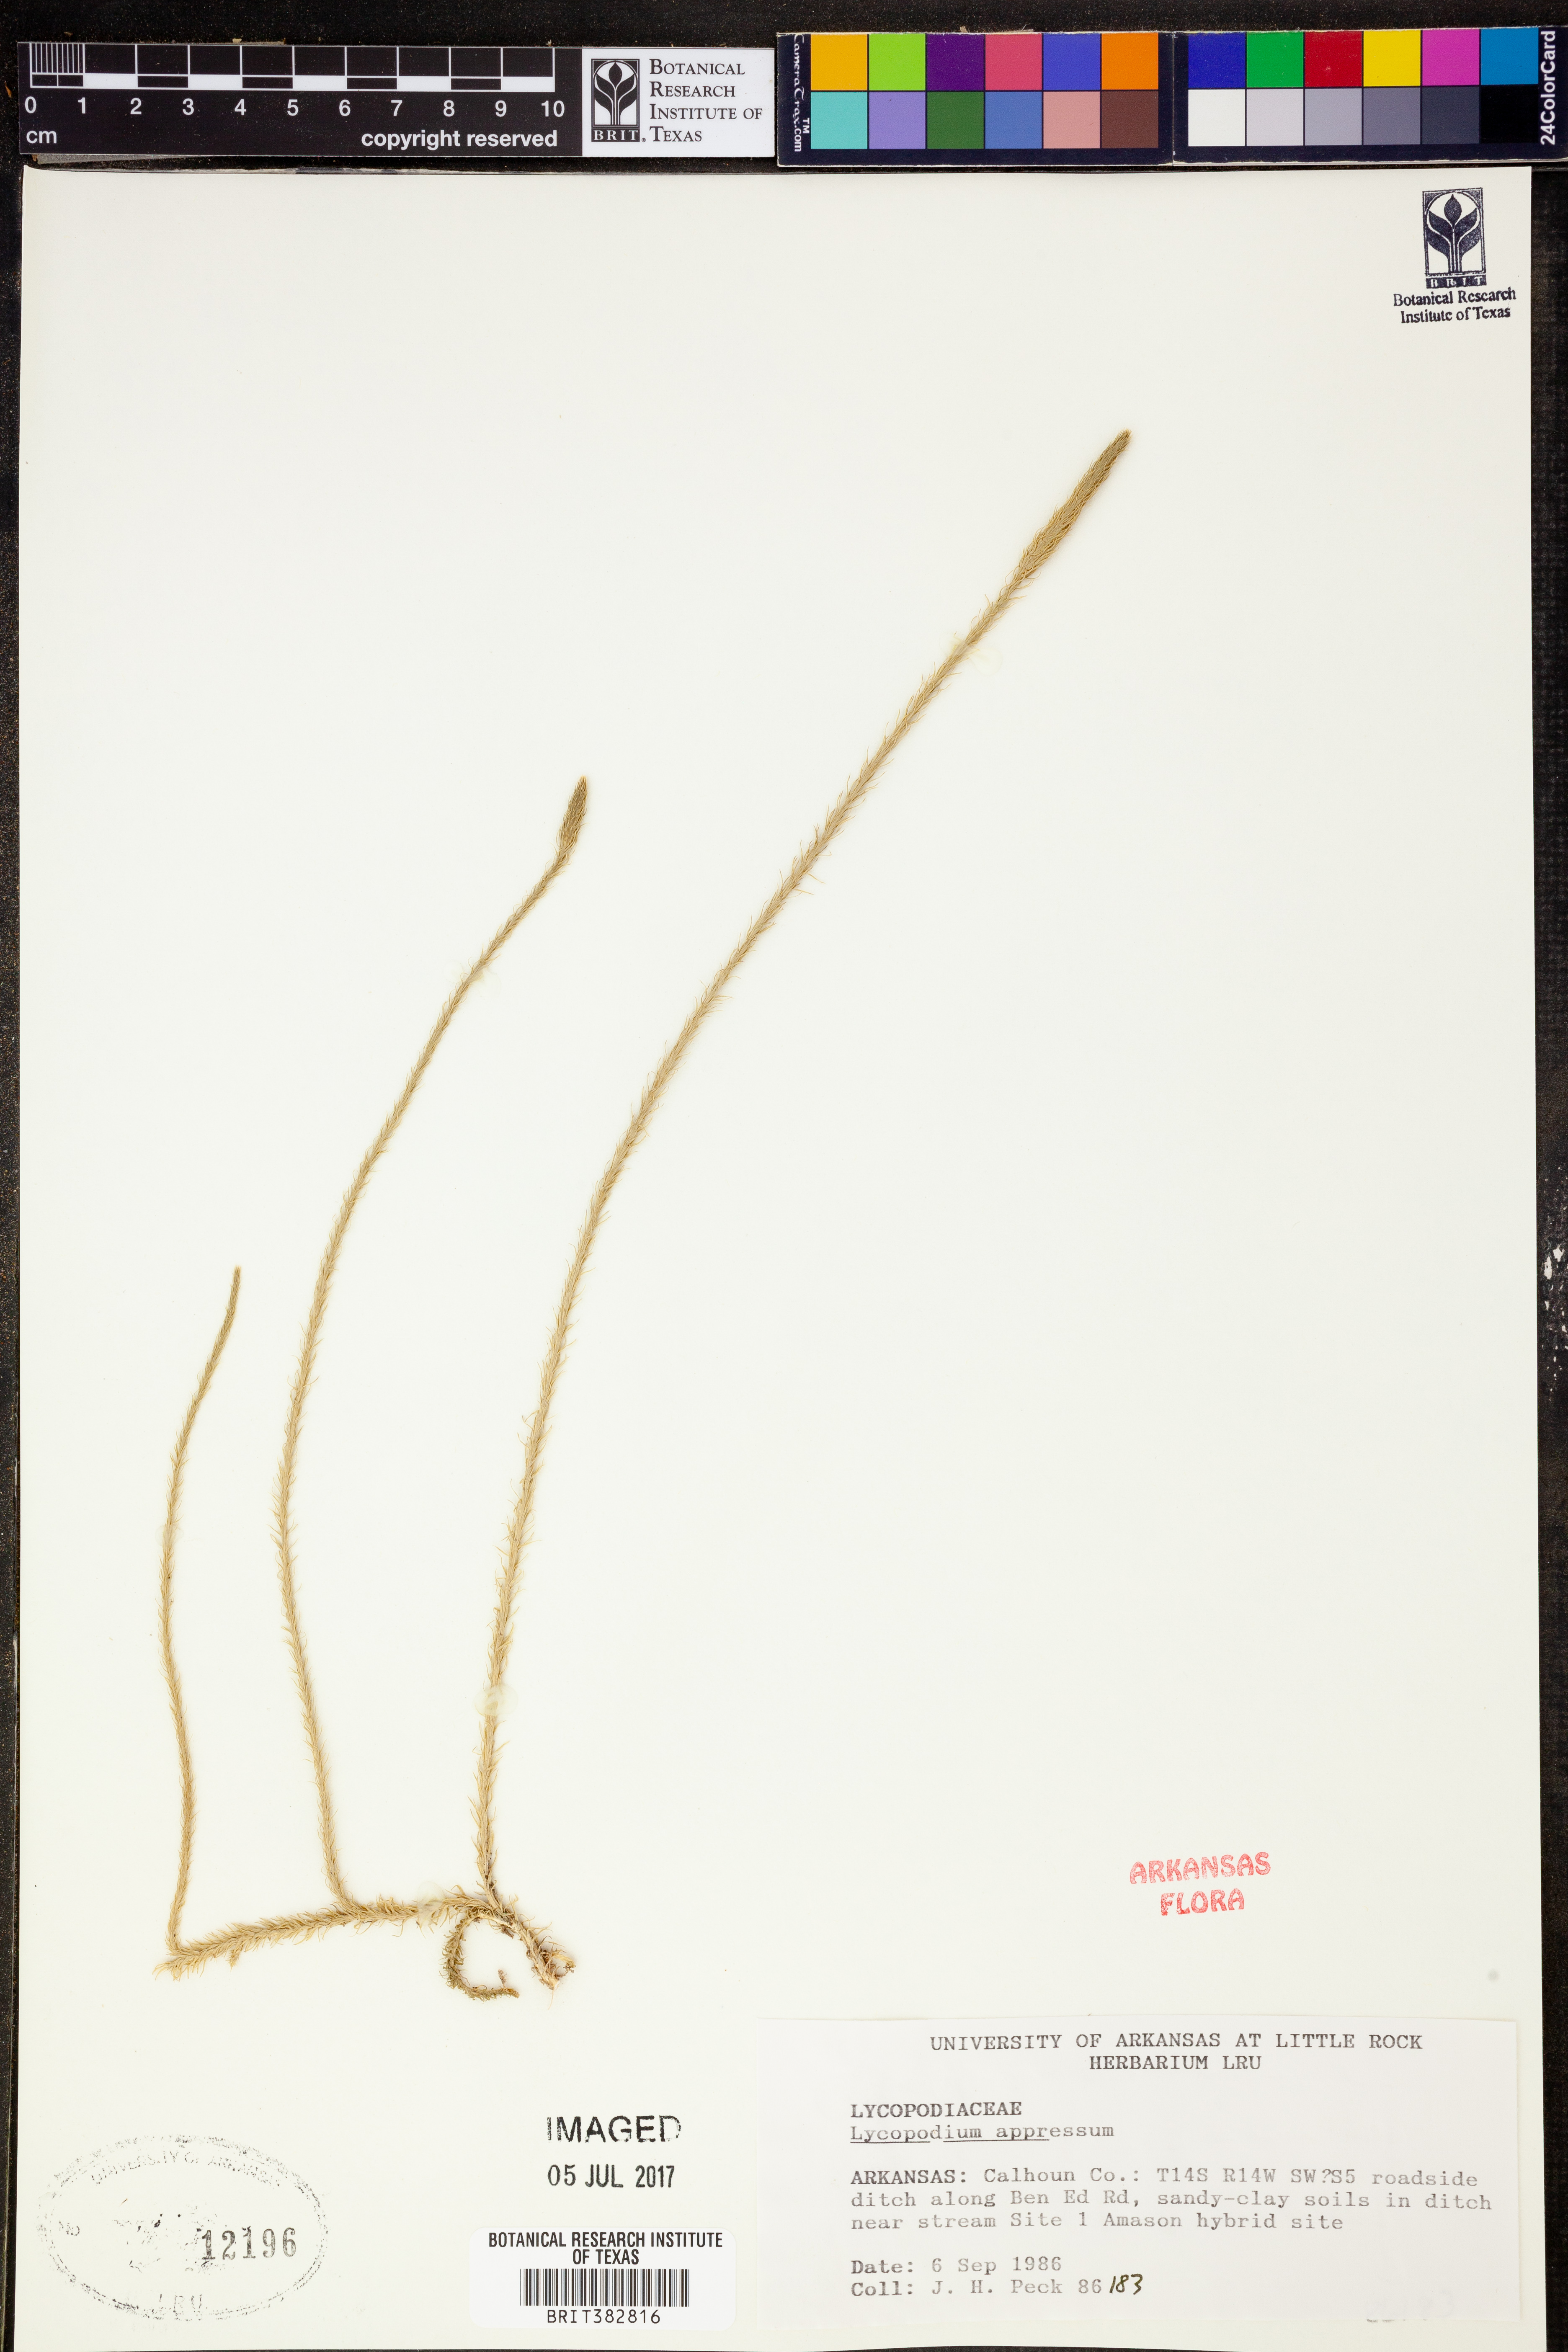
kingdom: Plantae
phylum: Tracheophyta
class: Lycopodiopsida
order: Lycopodiales
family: Lycopodiaceae
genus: Lycopodiella
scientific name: Lycopodiella appressa
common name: Appressed bog clubmoss
